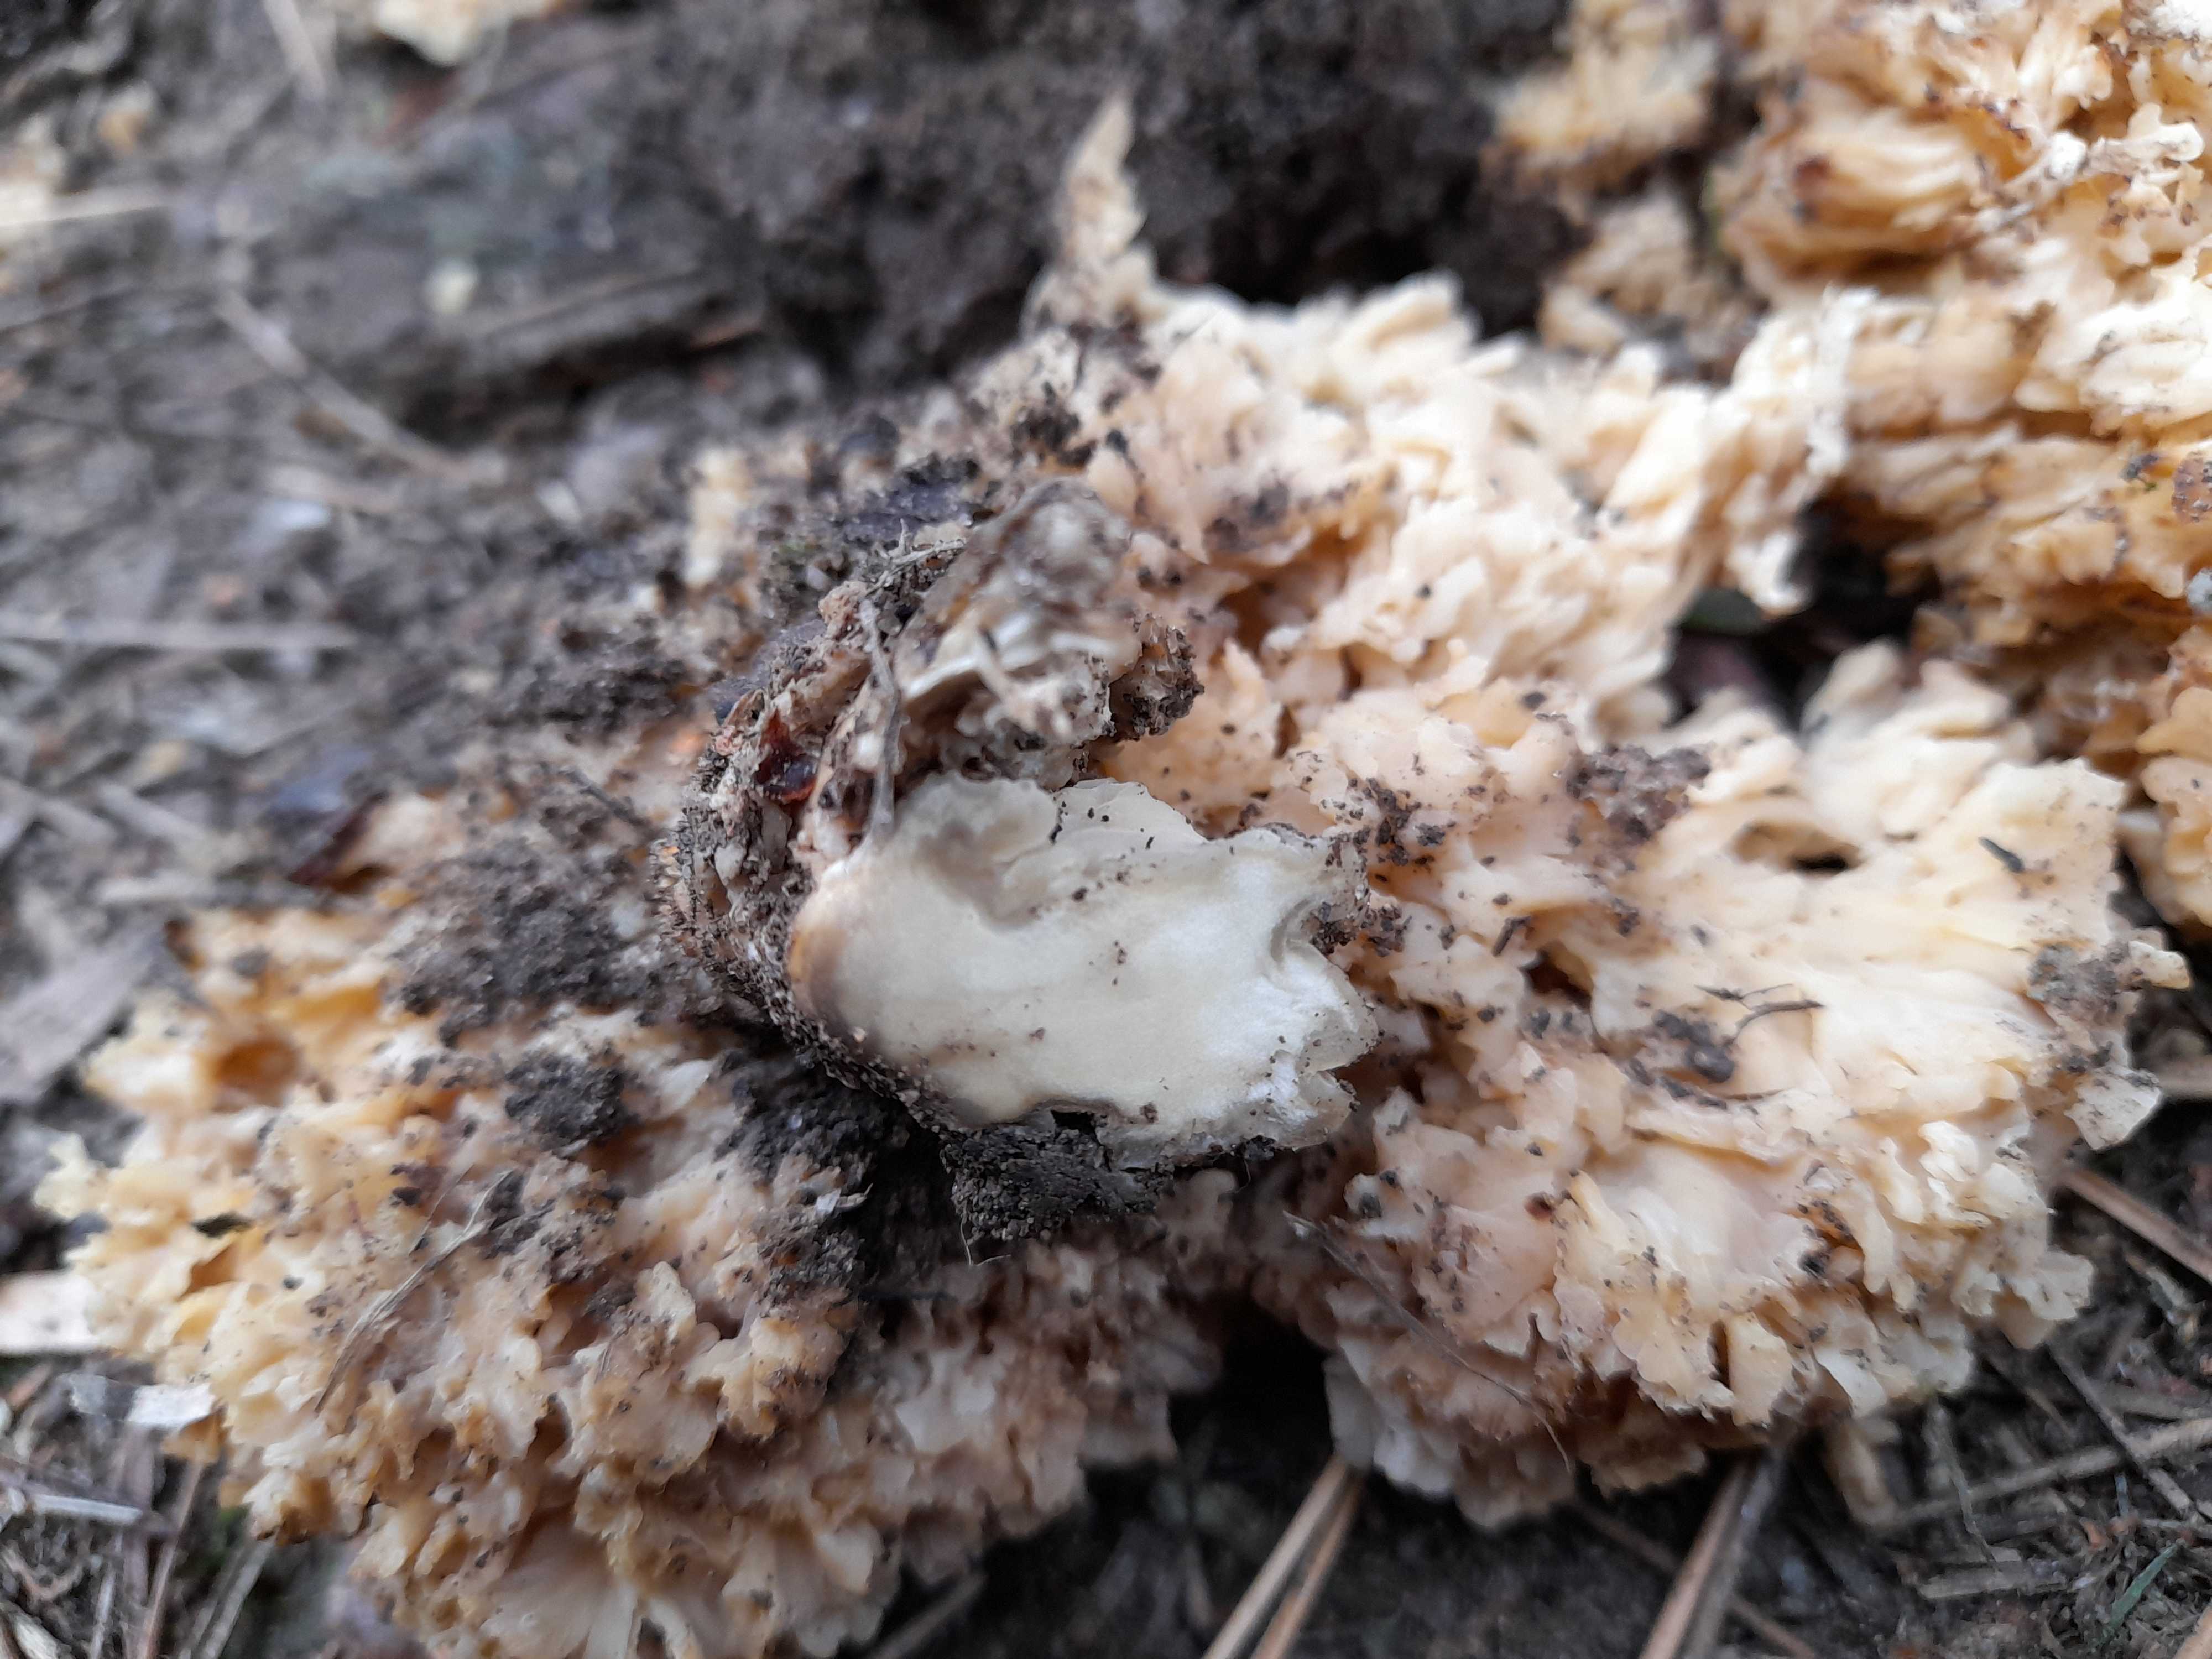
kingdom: Fungi
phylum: Basidiomycota
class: Agaricomycetes
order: Polyporales
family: Sparassidaceae
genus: Sparassis
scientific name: Sparassis crispa
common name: kruset blomkålssvamp
